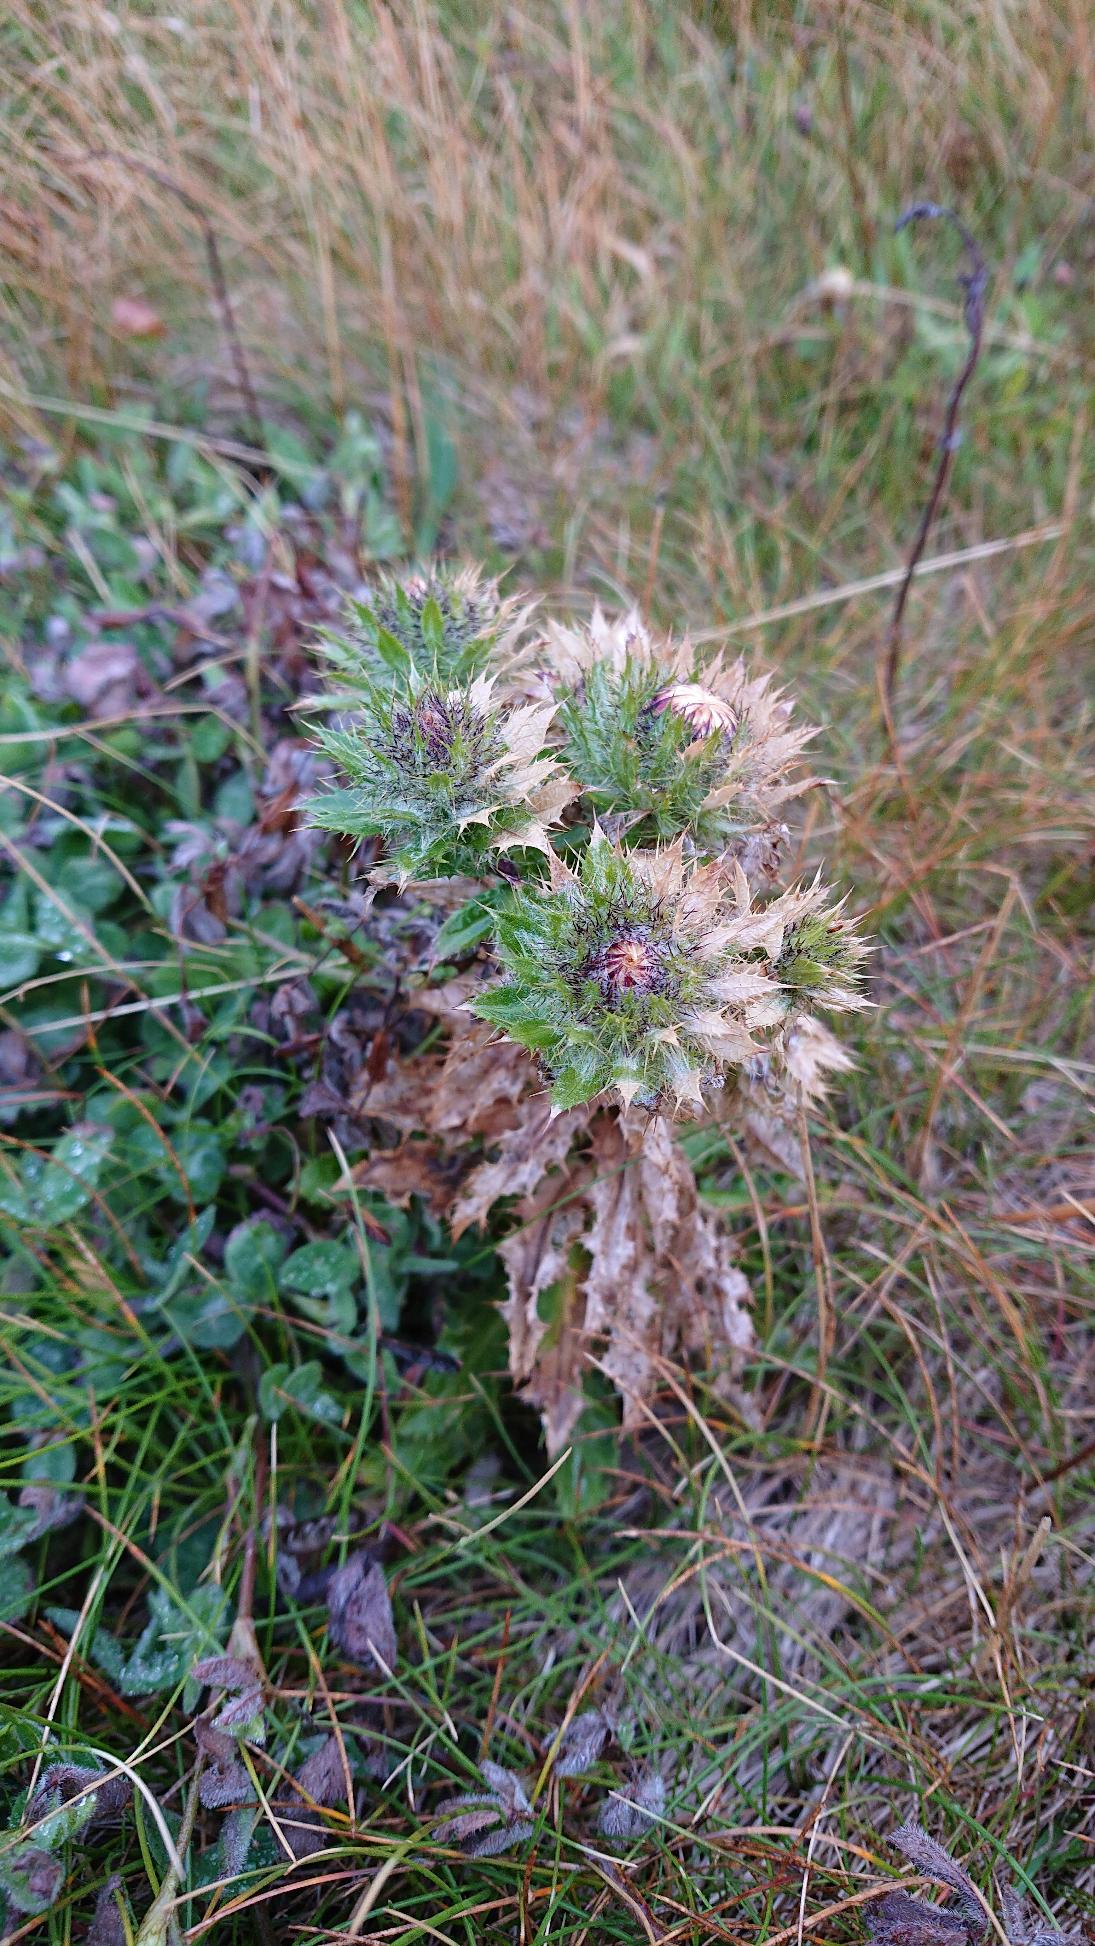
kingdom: Plantae
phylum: Tracheophyta
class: Magnoliopsida
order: Asterales
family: Asteraceae
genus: Carlina
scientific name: Carlina vulgaris
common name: Bakketidsel (underart)
